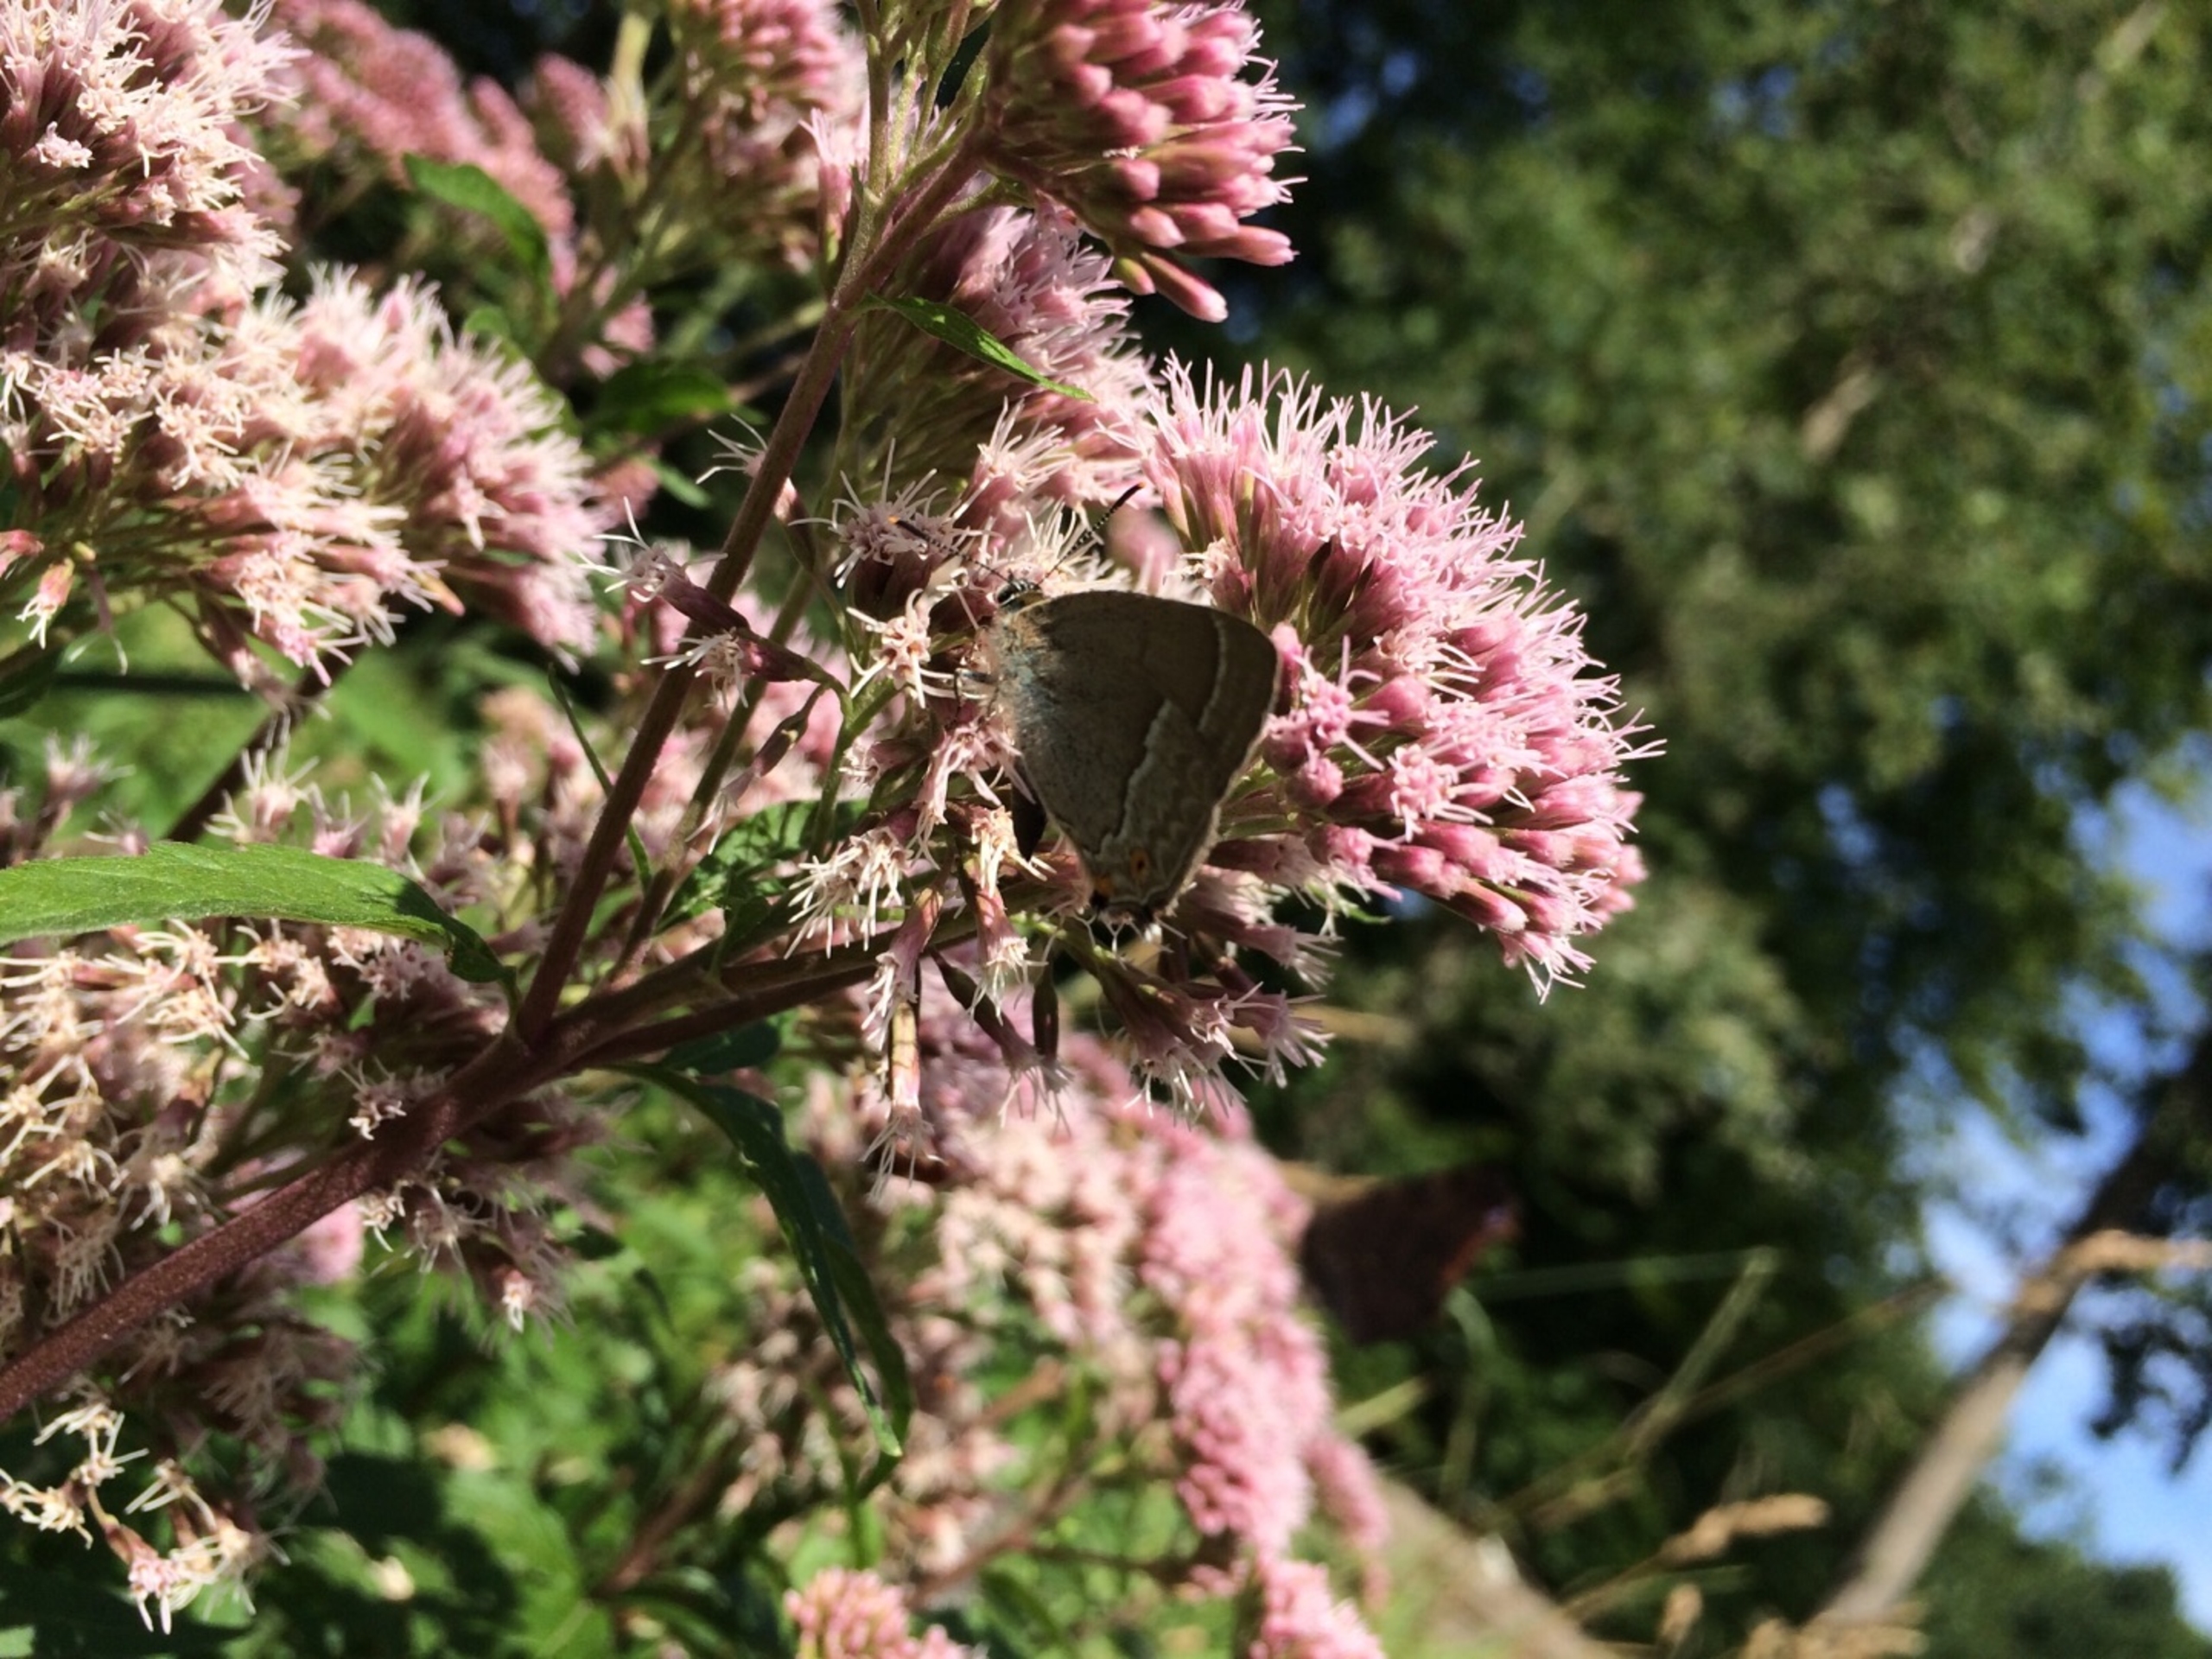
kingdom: Animalia
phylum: Arthropoda
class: Insecta
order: Lepidoptera
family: Lycaenidae
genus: Satyrium
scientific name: Satyrium w-album
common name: Det hvide W
